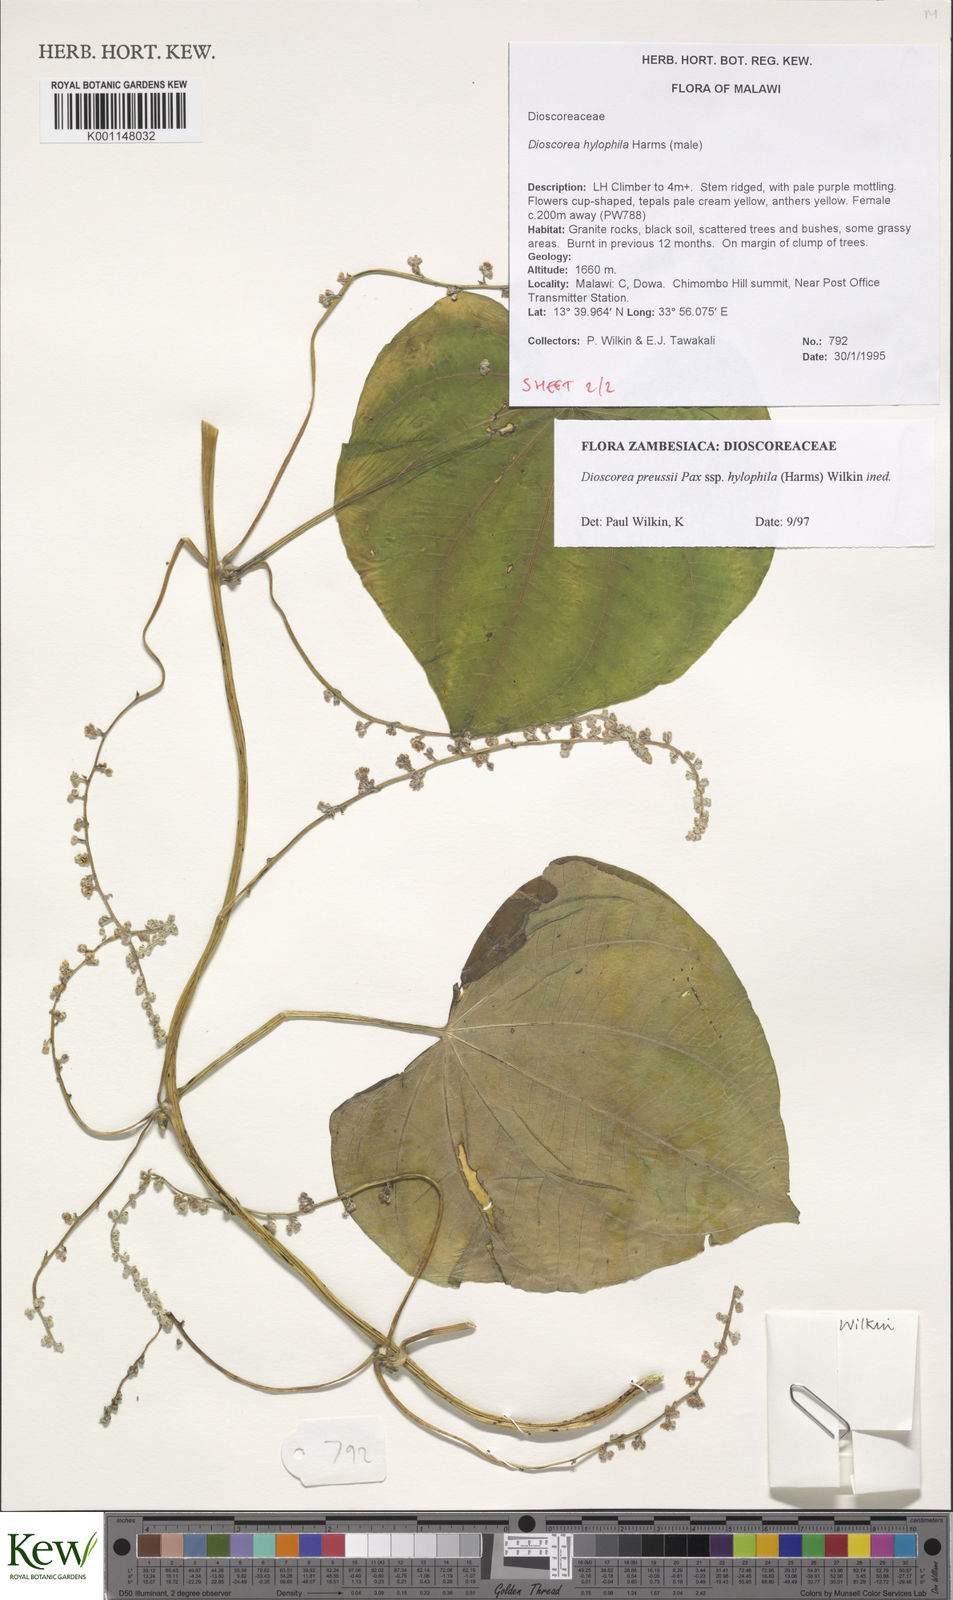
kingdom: Plantae
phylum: Tracheophyta
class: Liliopsida
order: Dioscoreales
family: Dioscoreaceae
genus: Dioscorea
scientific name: Dioscorea
